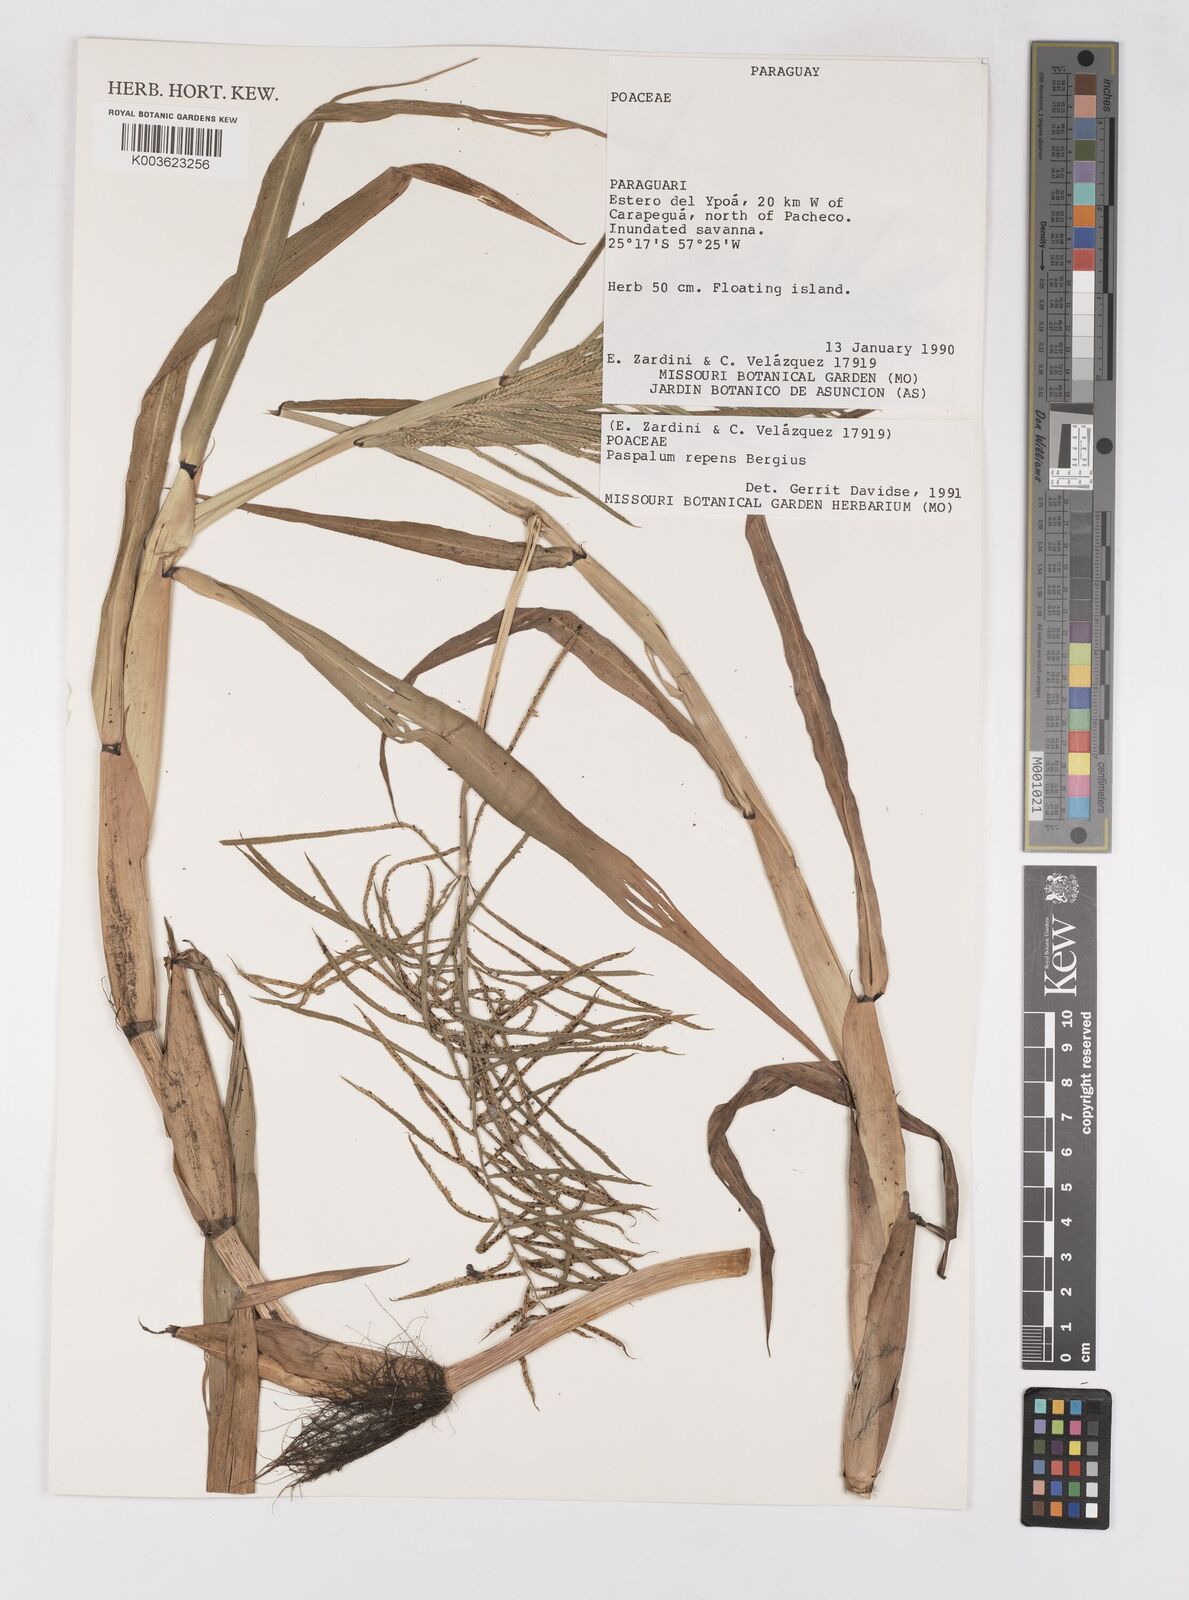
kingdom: Plantae
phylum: Tracheophyta
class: Liliopsida
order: Poales
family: Poaceae
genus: Paspalum
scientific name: Paspalum repens
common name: Water paspalum
